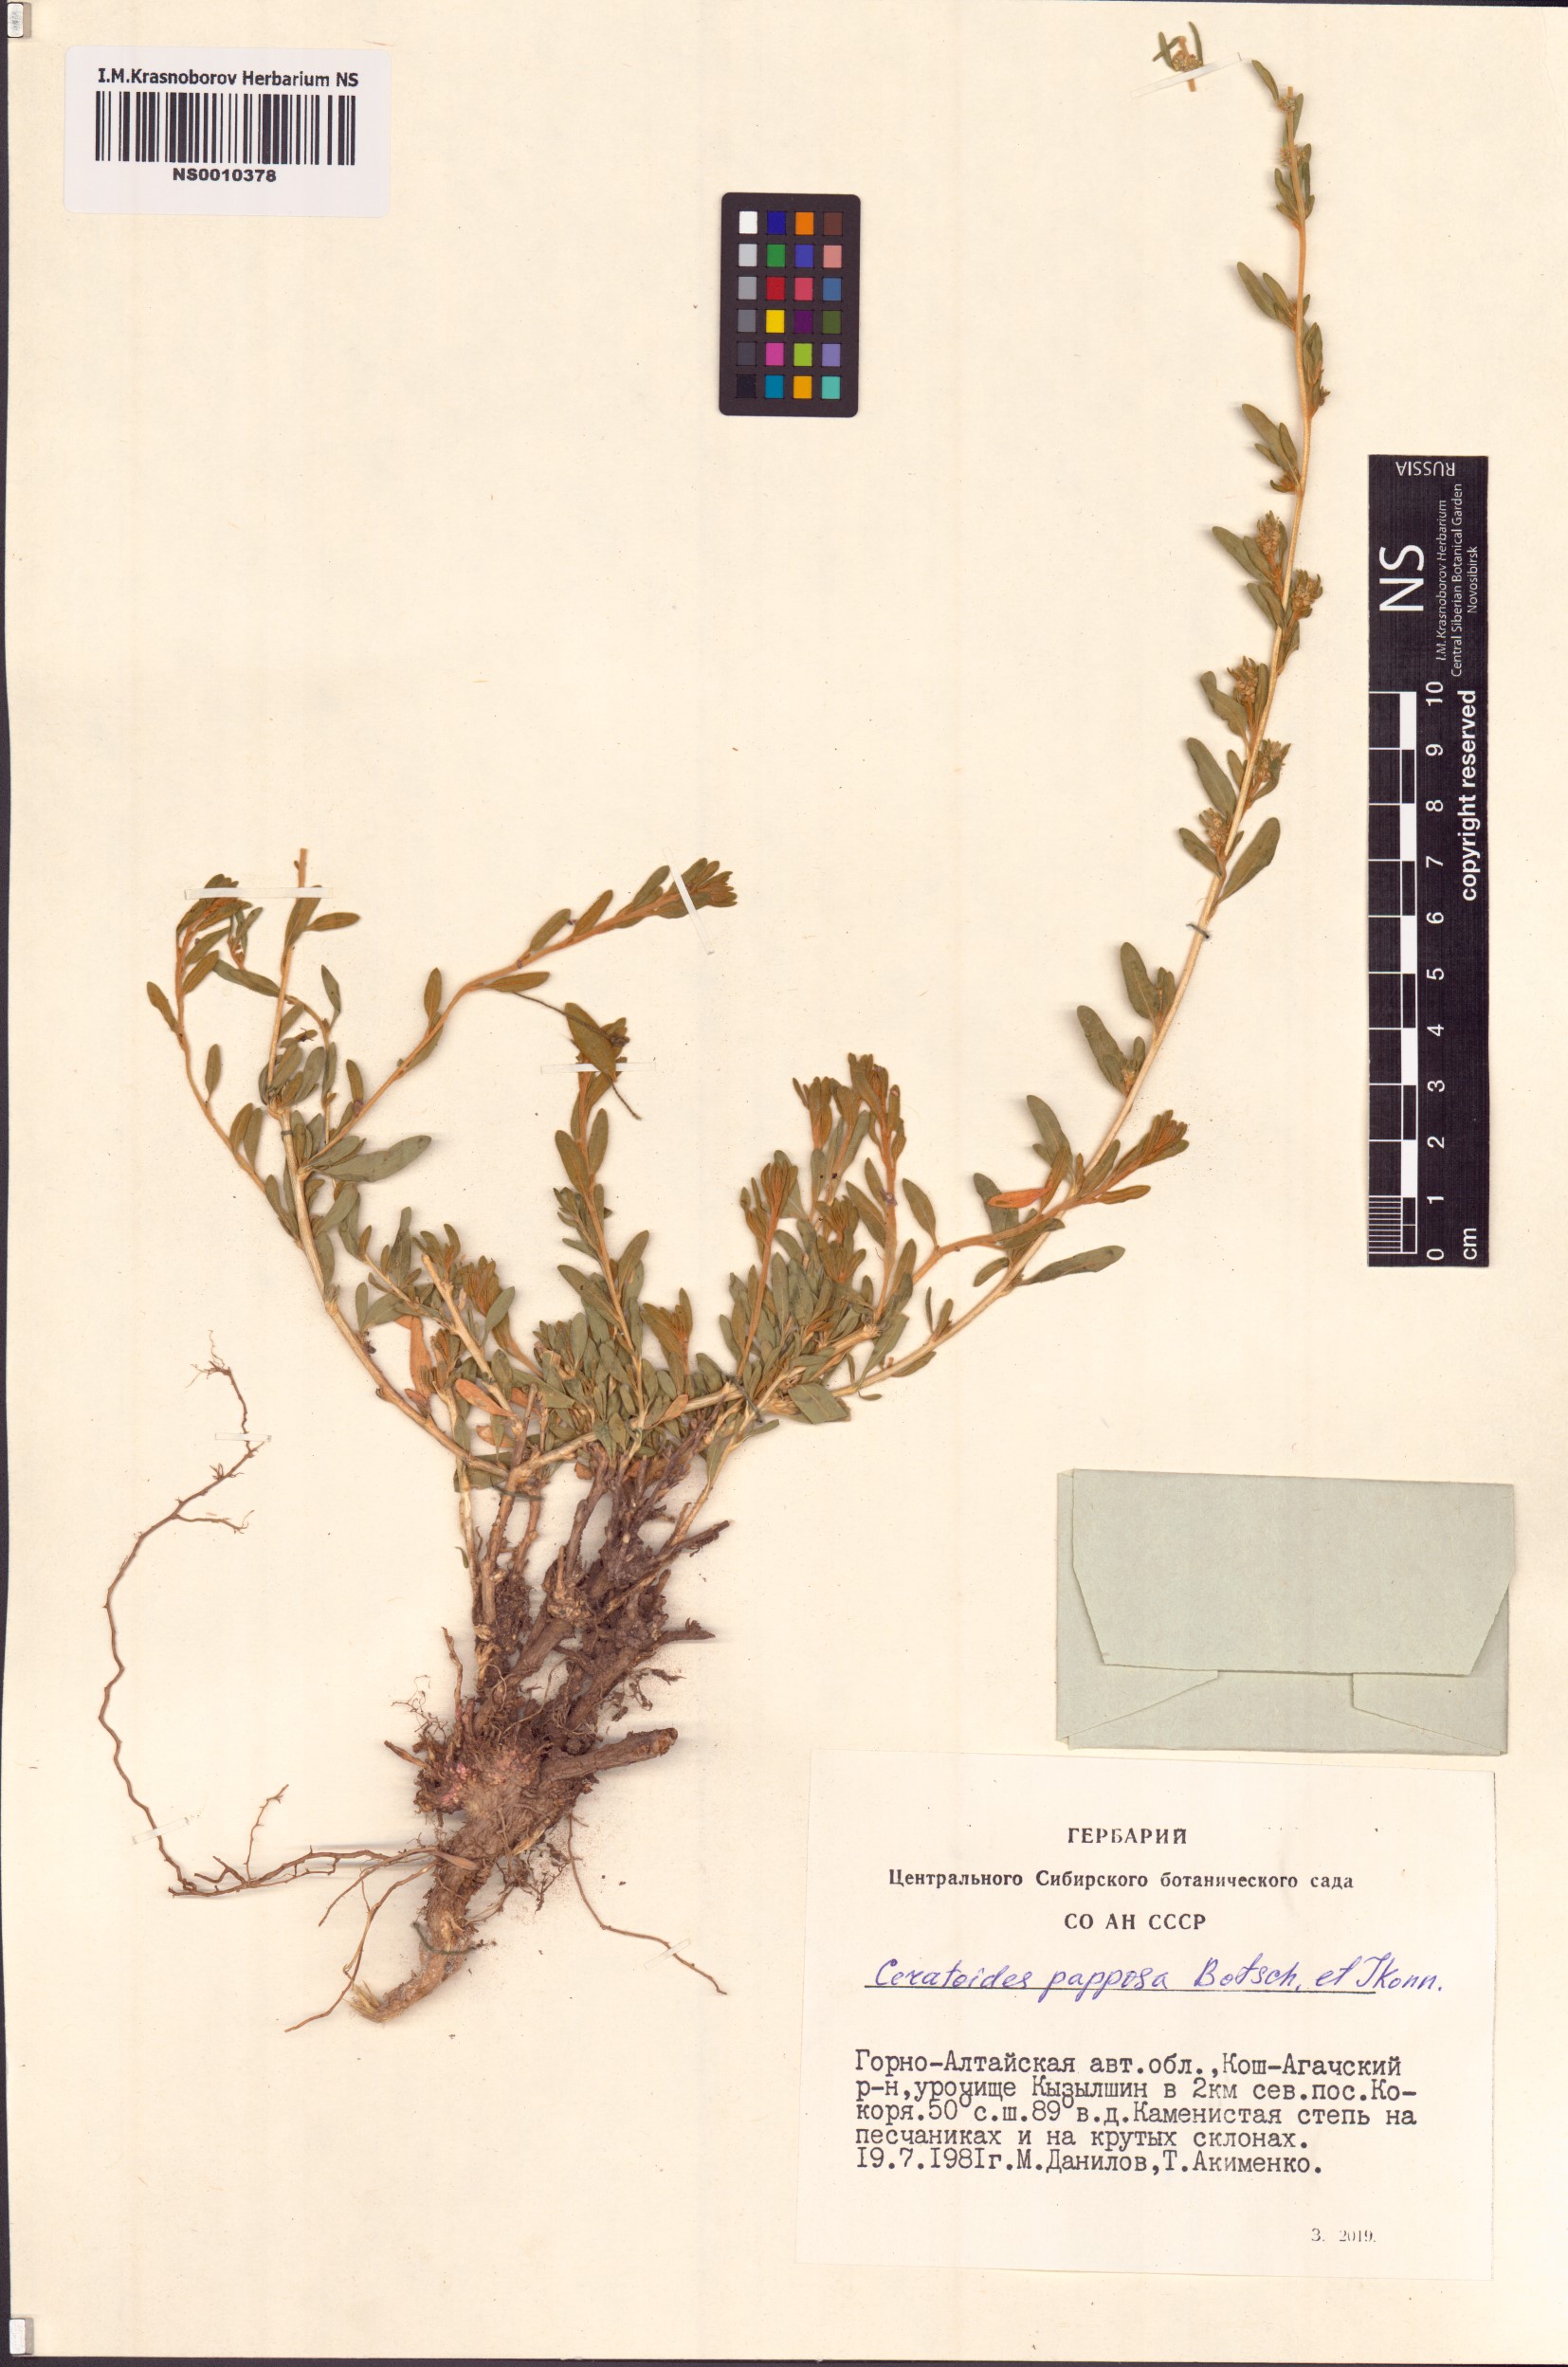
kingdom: Plantae
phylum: Tracheophyta
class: Magnoliopsida
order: Caryophyllales
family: Amaranthaceae
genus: Krascheninnikovia
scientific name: Krascheninnikovia ceratoides
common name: Pamirian winterfat
